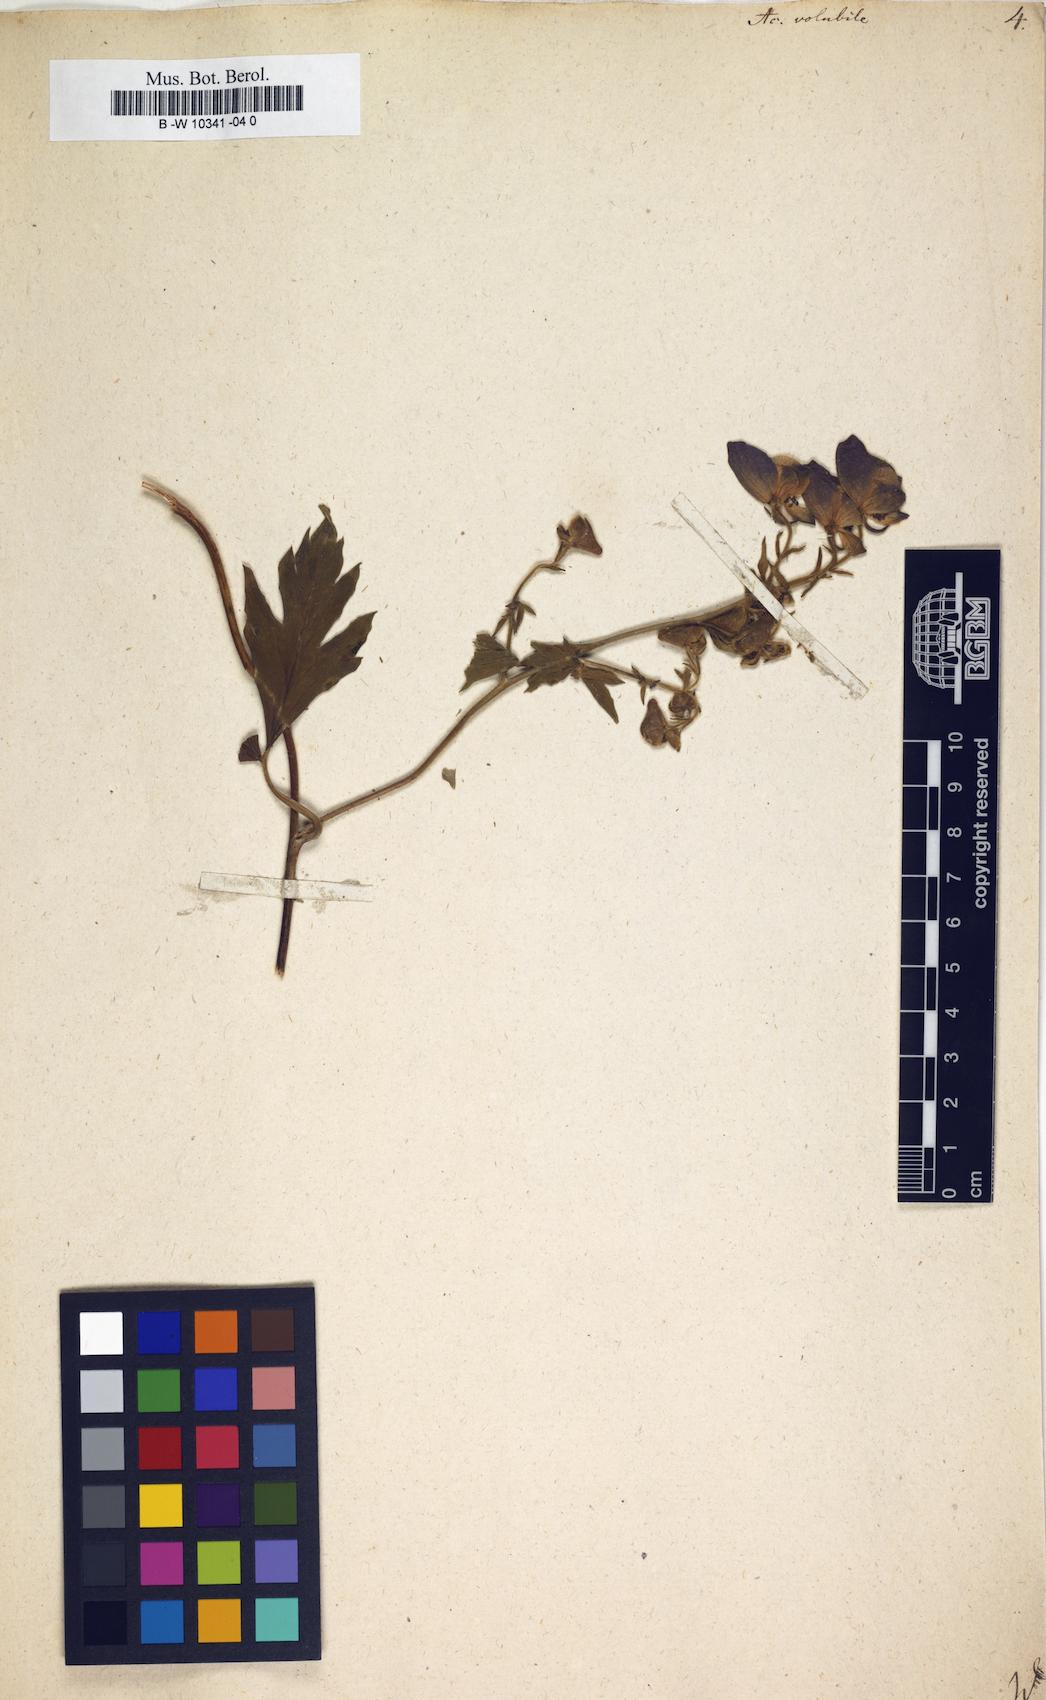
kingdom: Plantae
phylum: Tracheophyta
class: Magnoliopsida
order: Ranunculales
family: Ranunculaceae
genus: Aconitum
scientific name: Aconitum volubile
